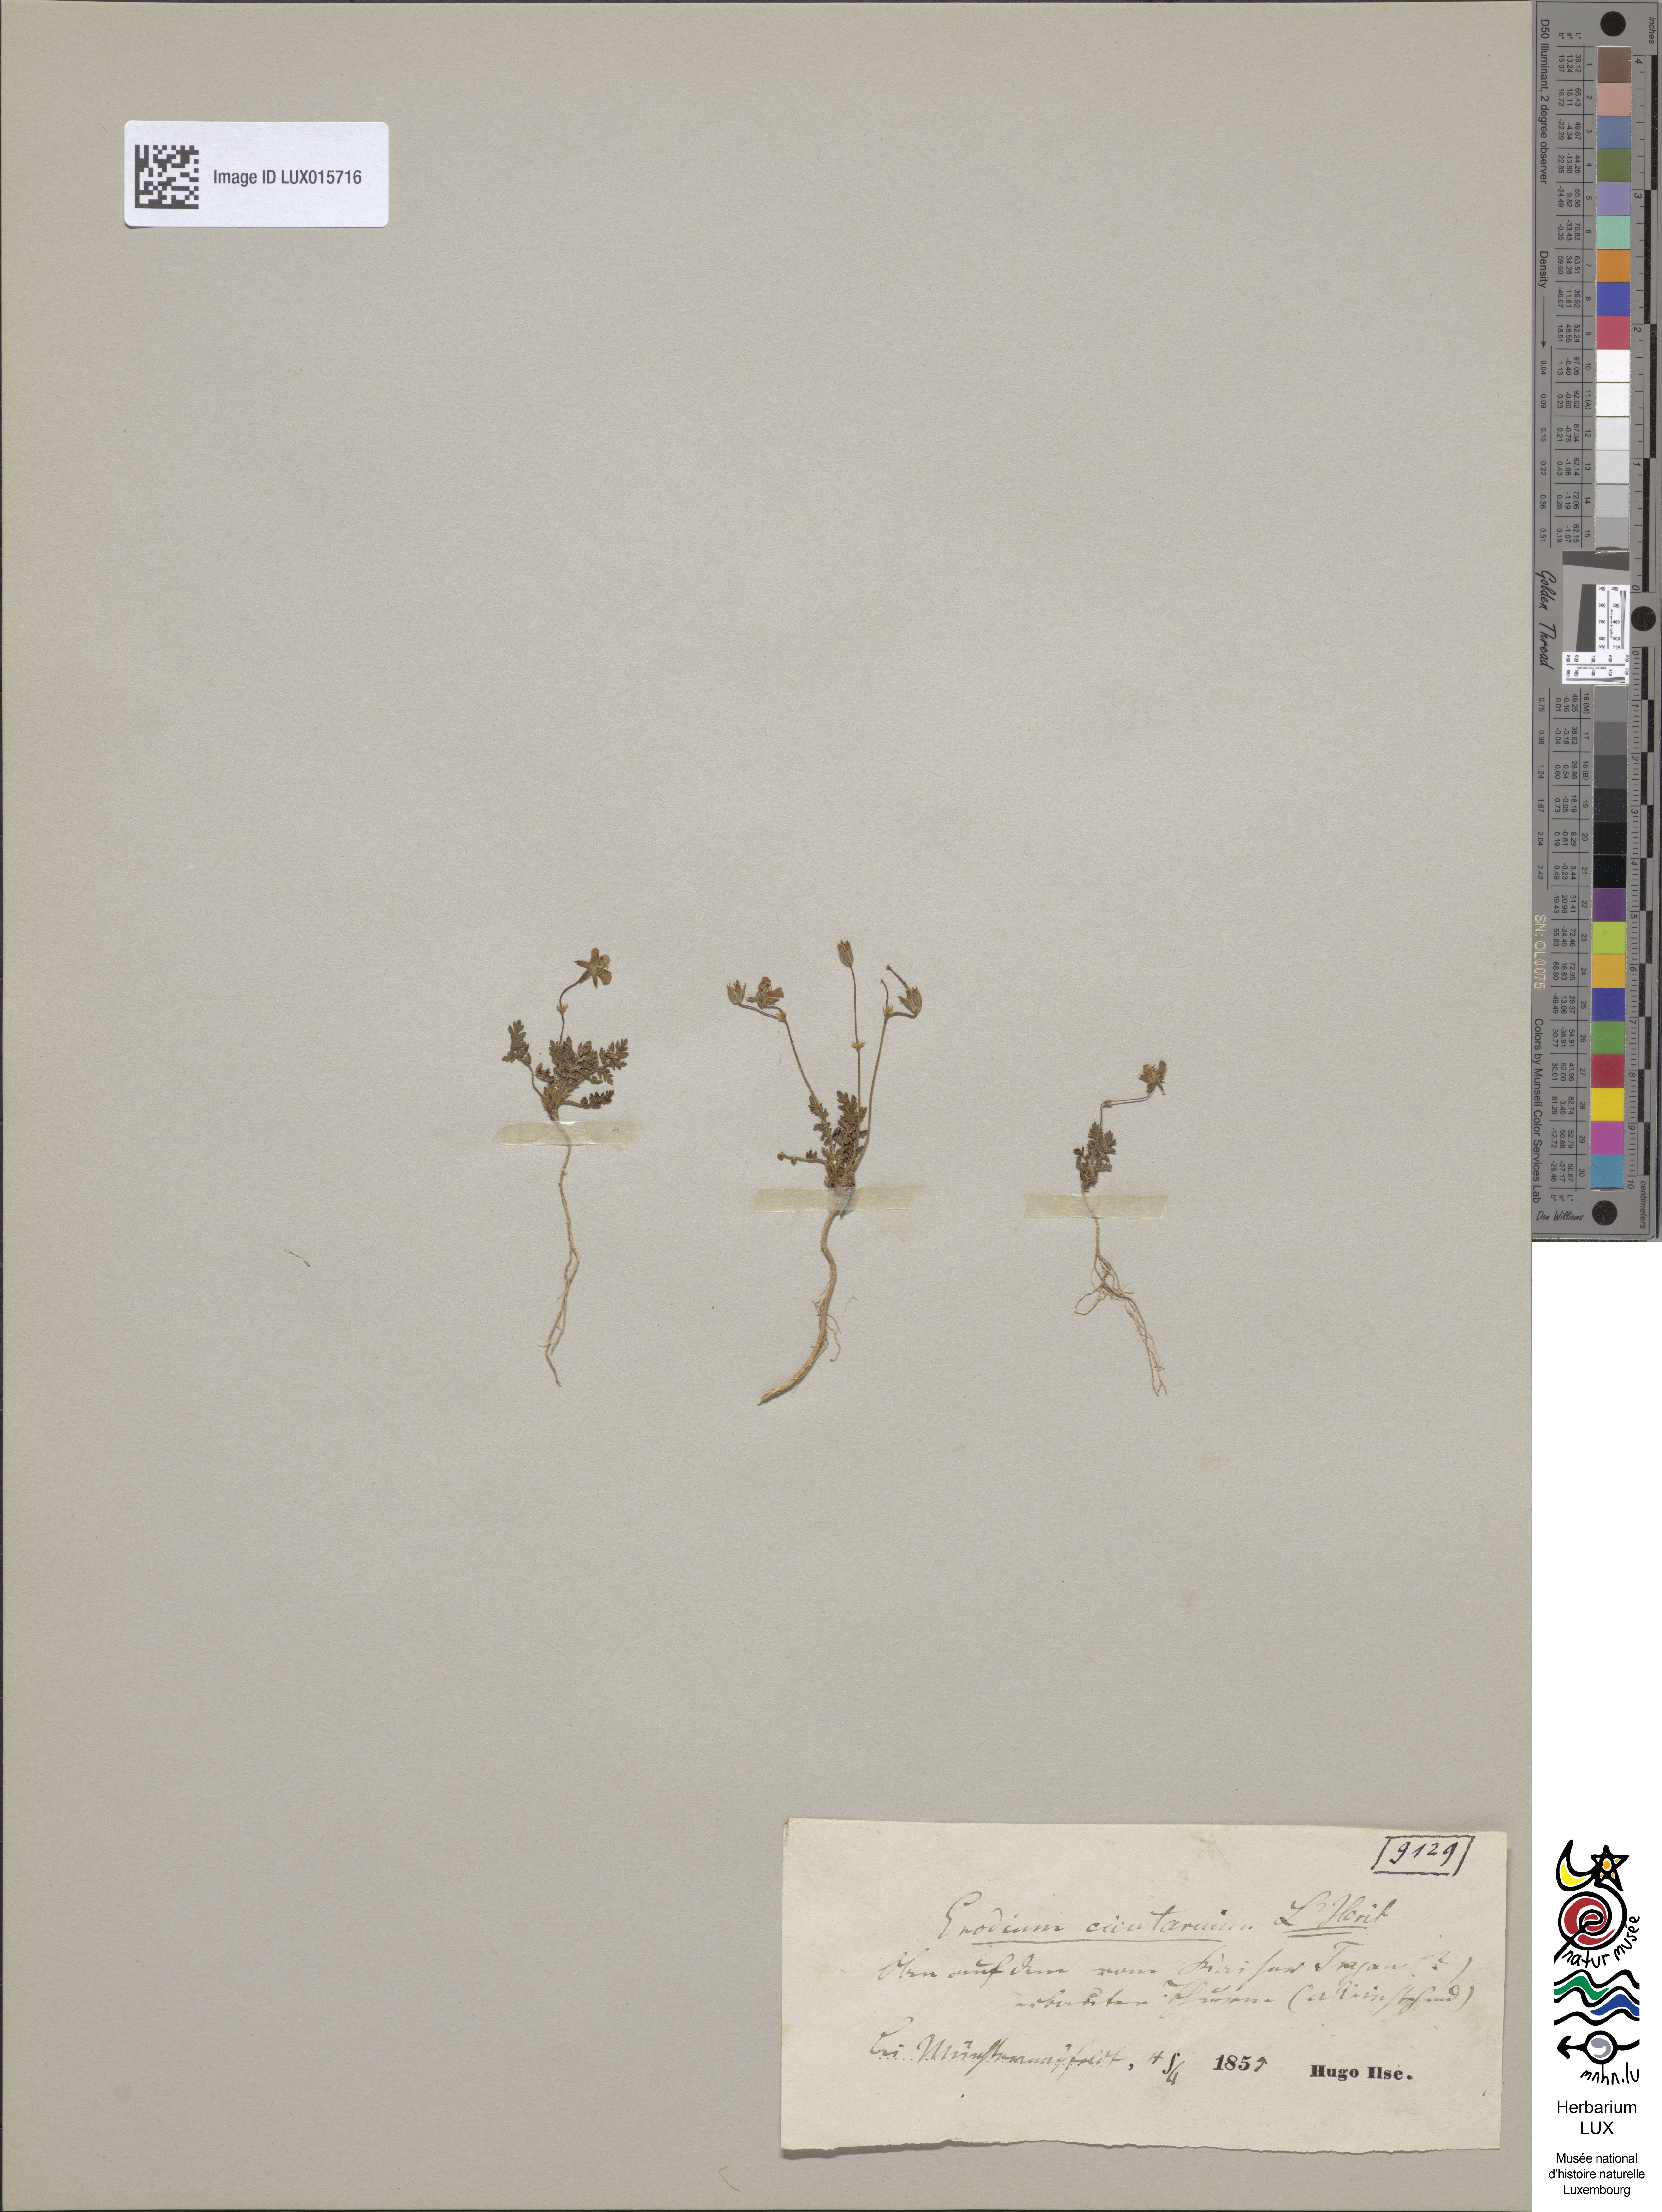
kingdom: Plantae
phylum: Tracheophyta
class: Magnoliopsida
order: Geraniales
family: Geraniaceae
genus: Erodium
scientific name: Erodium cicutarium
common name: Common stork's-bill
